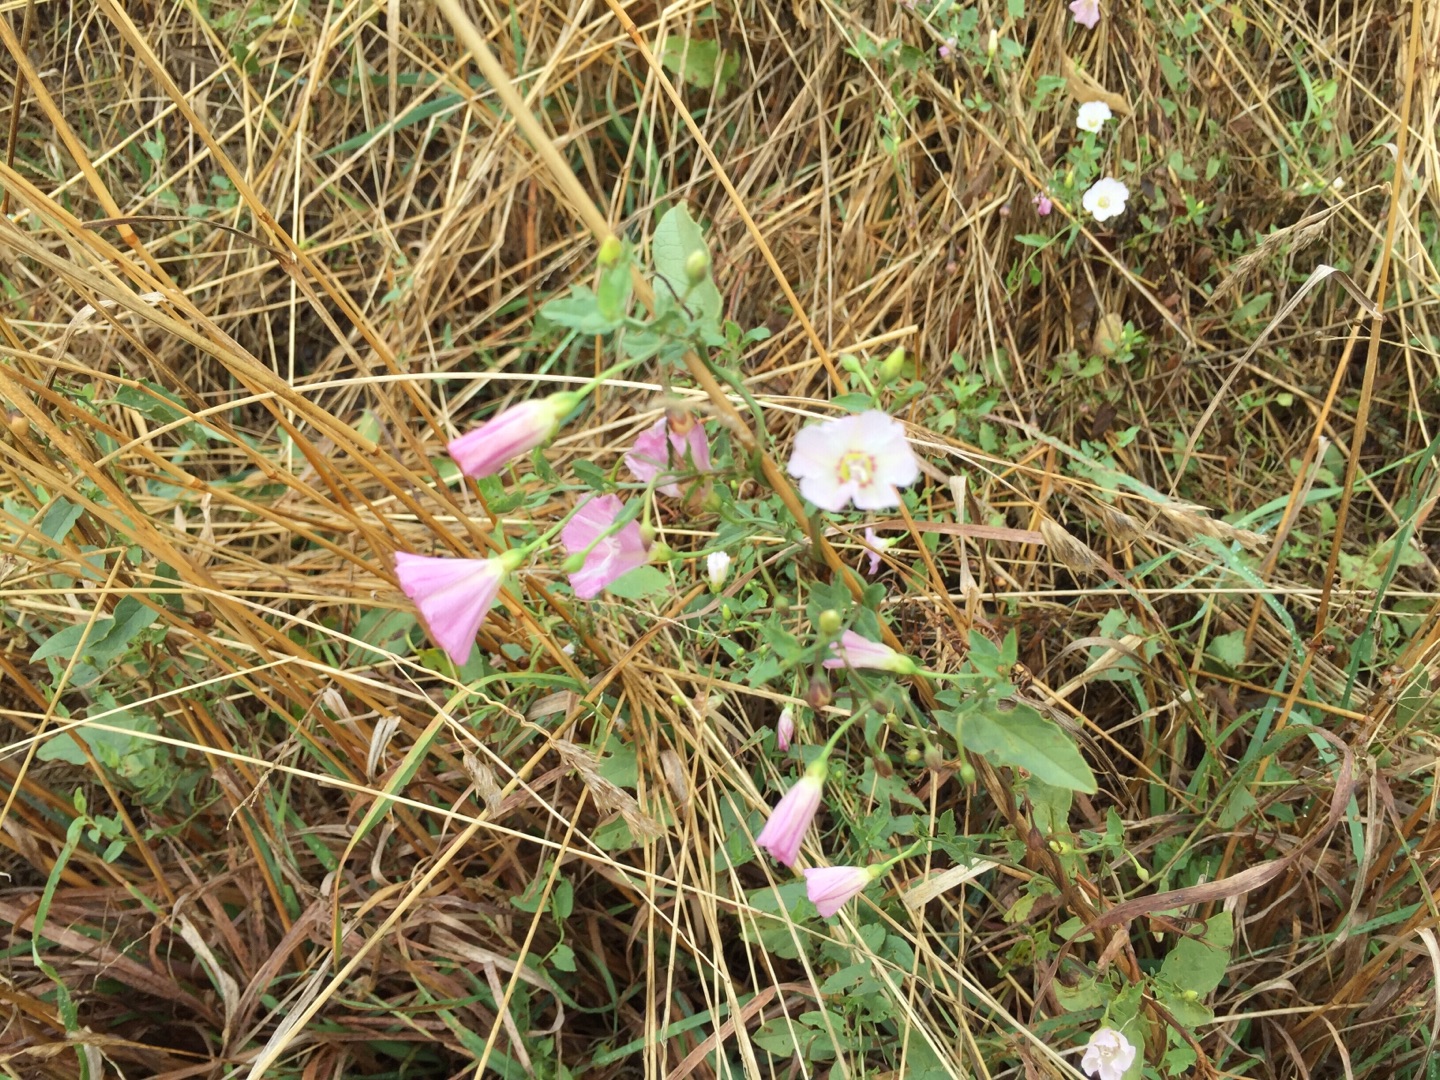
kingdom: Plantae
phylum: Tracheophyta
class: Magnoliopsida
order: Solanales
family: Convolvulaceae
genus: Convolvulus
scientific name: Convolvulus arvensis
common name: Ager-snerle
